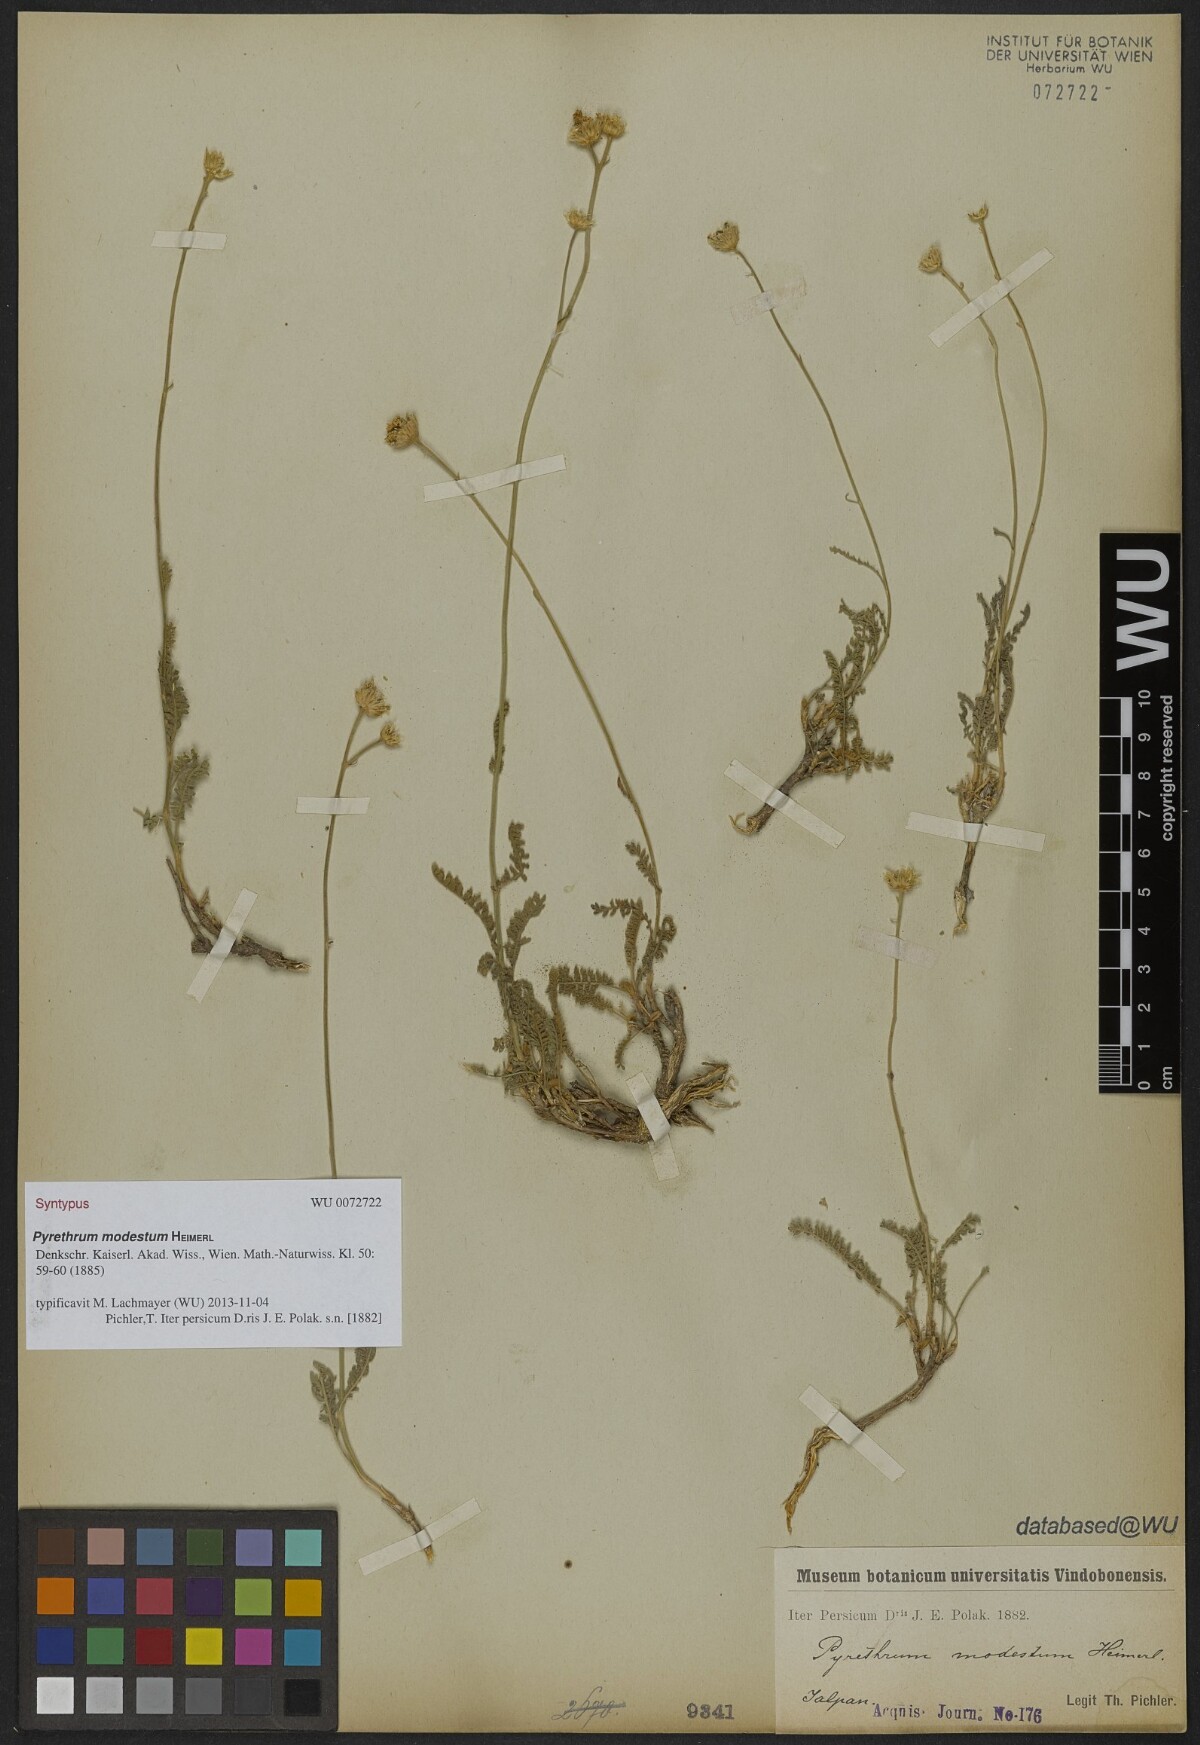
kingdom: Plantae
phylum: Tracheophyta
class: Magnoliopsida
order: Asterales
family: Asteraceae
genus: Tanacetum
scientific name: Tanacetum canescens
